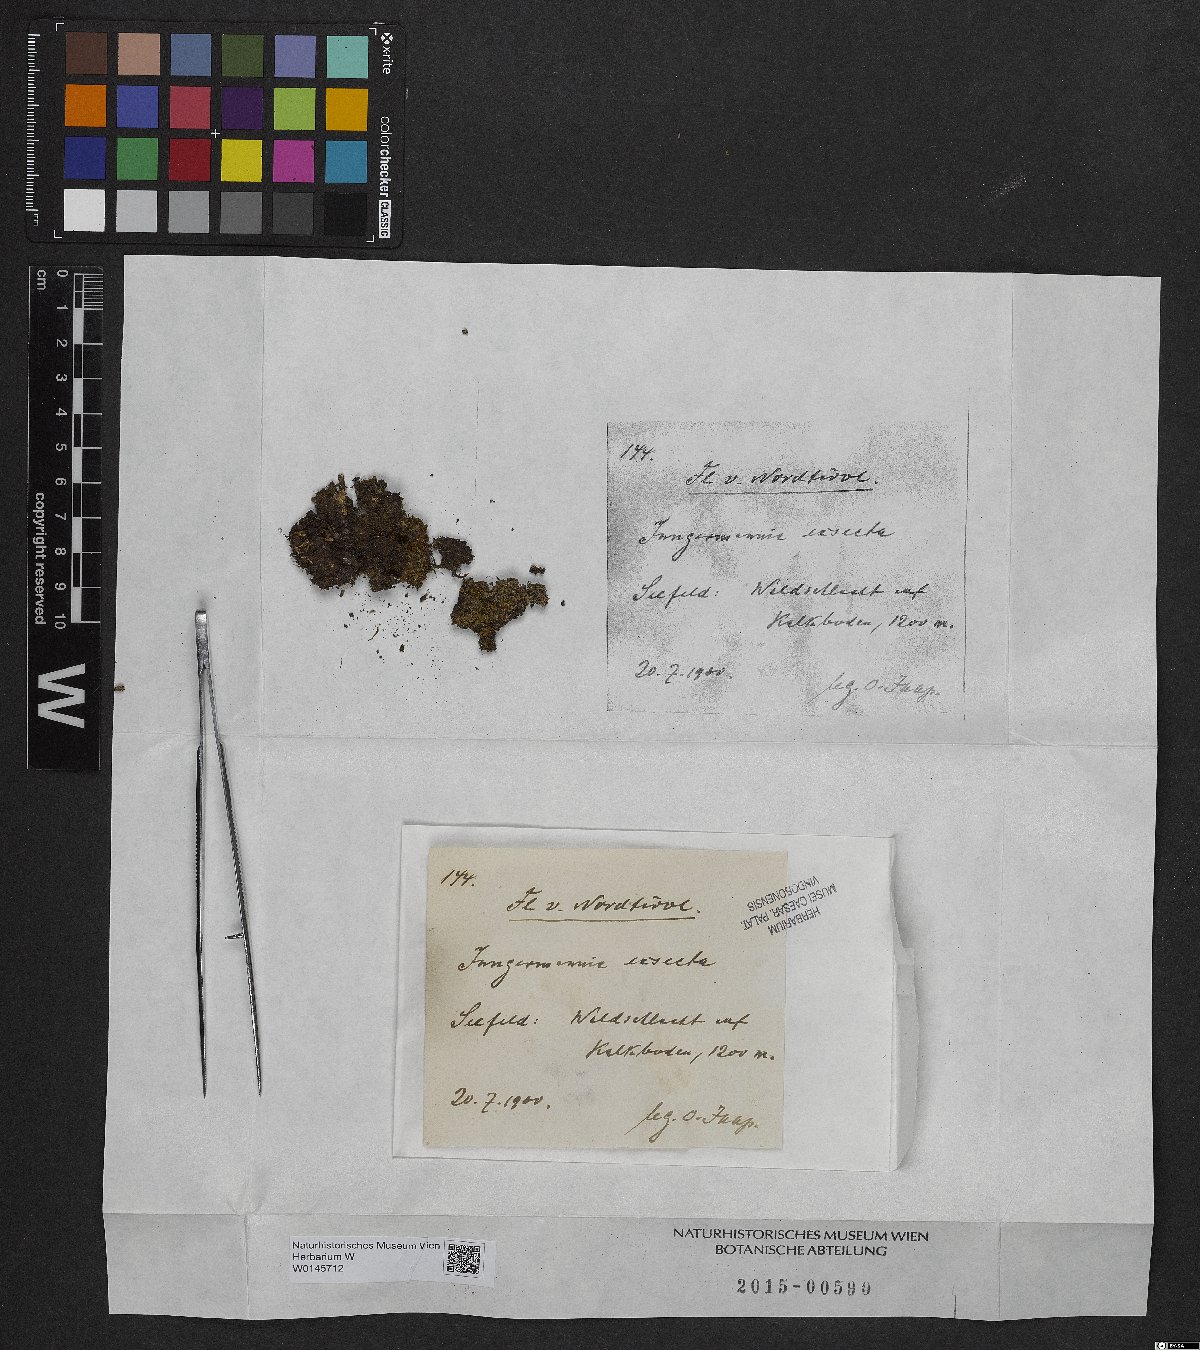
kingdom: Plantae
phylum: Marchantiophyta
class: Jungermanniopsida
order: Jungermanniales
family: Lophoziaceae
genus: Tritomaria
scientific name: Tritomaria exsecta
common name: Cut notchwort
